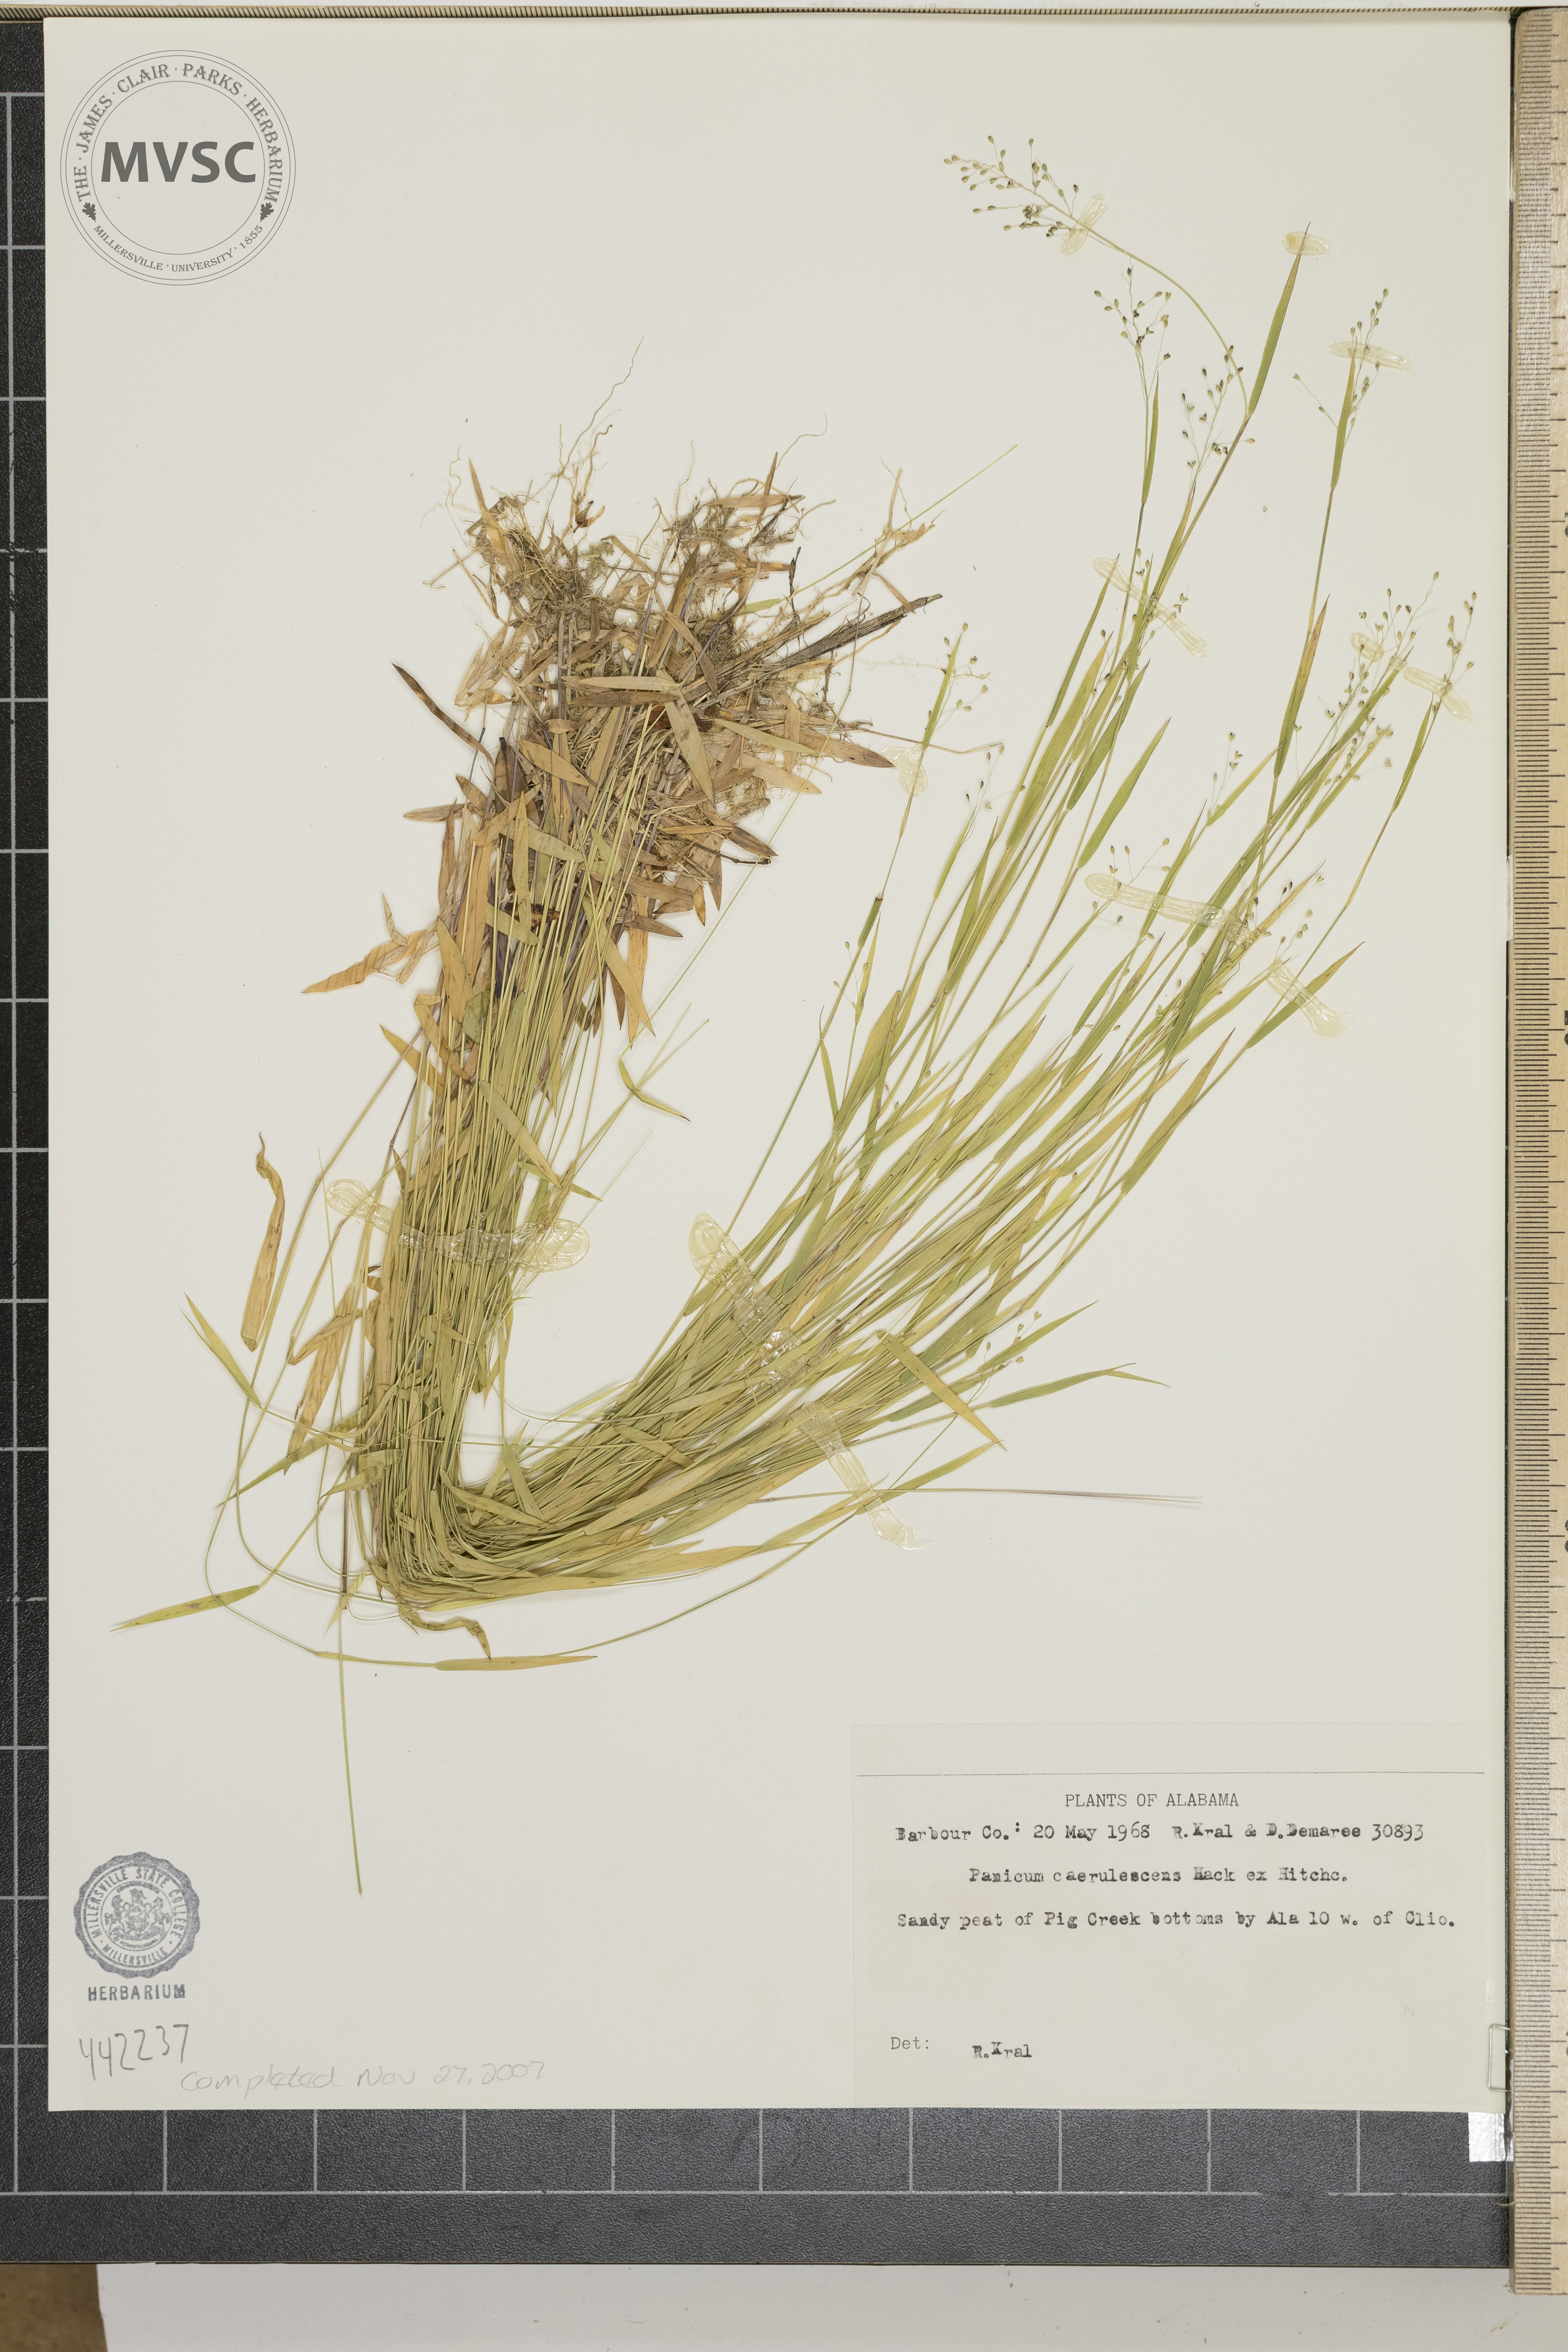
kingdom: Plantae
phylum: Tracheophyta
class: Liliopsida
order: Poales
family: Poaceae
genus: Dichanthelium
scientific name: Dichanthelium caerulescens
